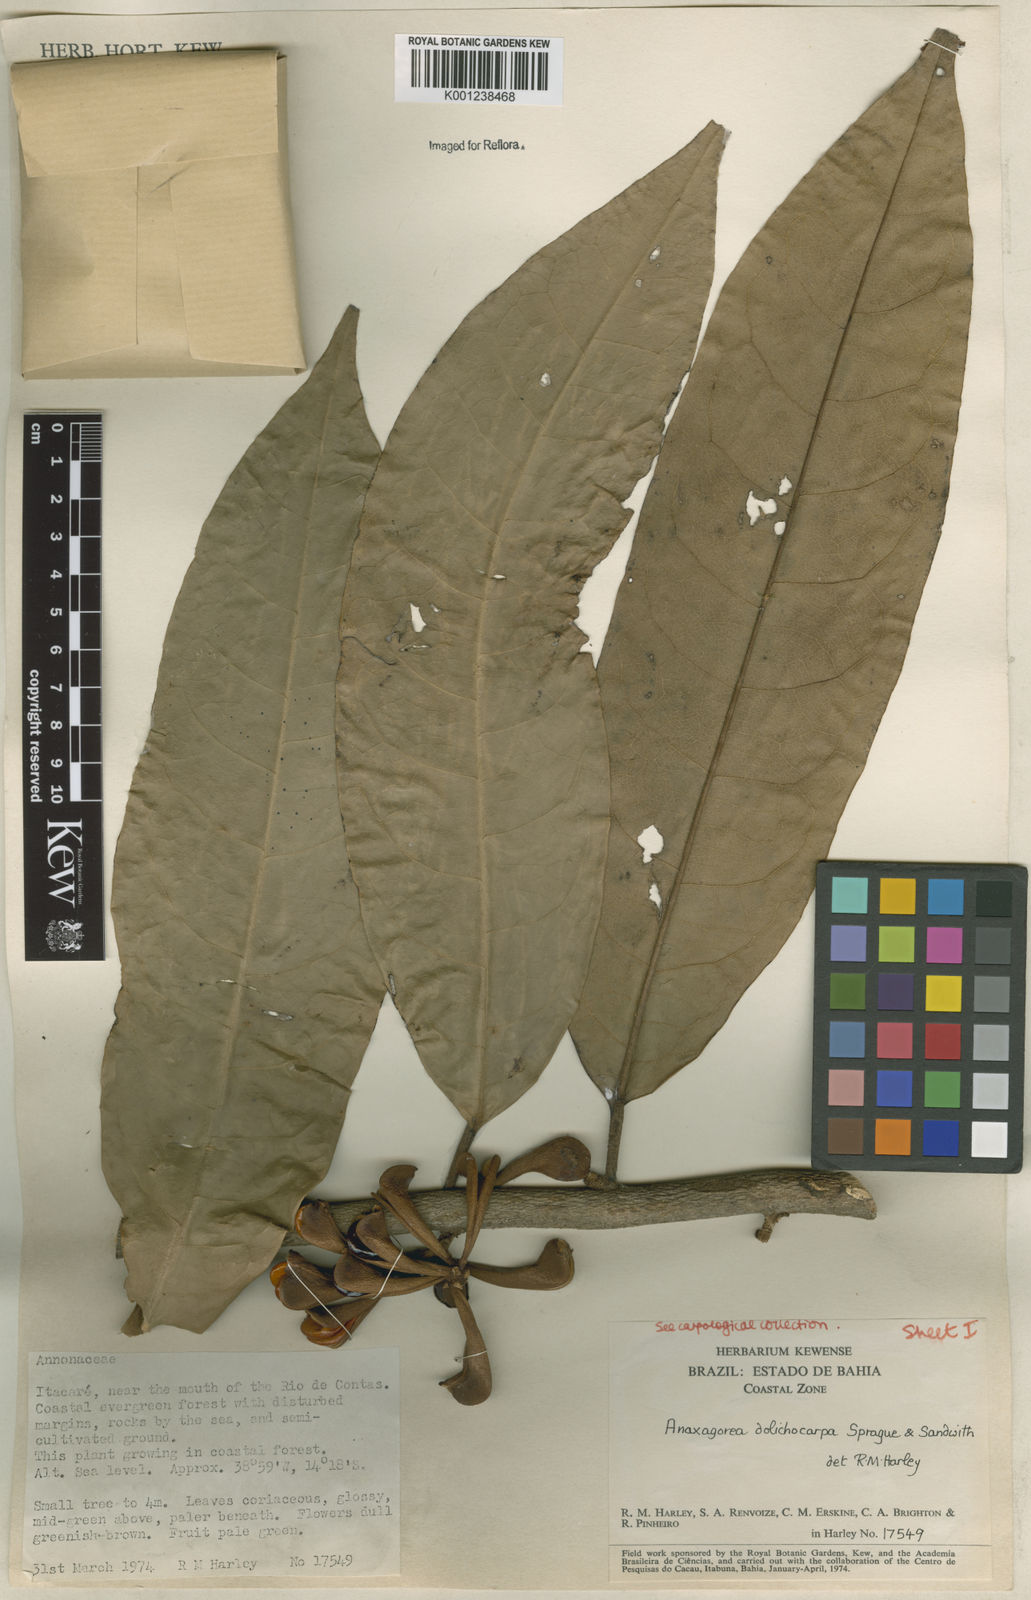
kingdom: Plantae
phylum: Tracheophyta
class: Magnoliopsida
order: Magnoliales
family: Annonaceae
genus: Anaxagorea
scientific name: Anaxagorea dolichocarpa
